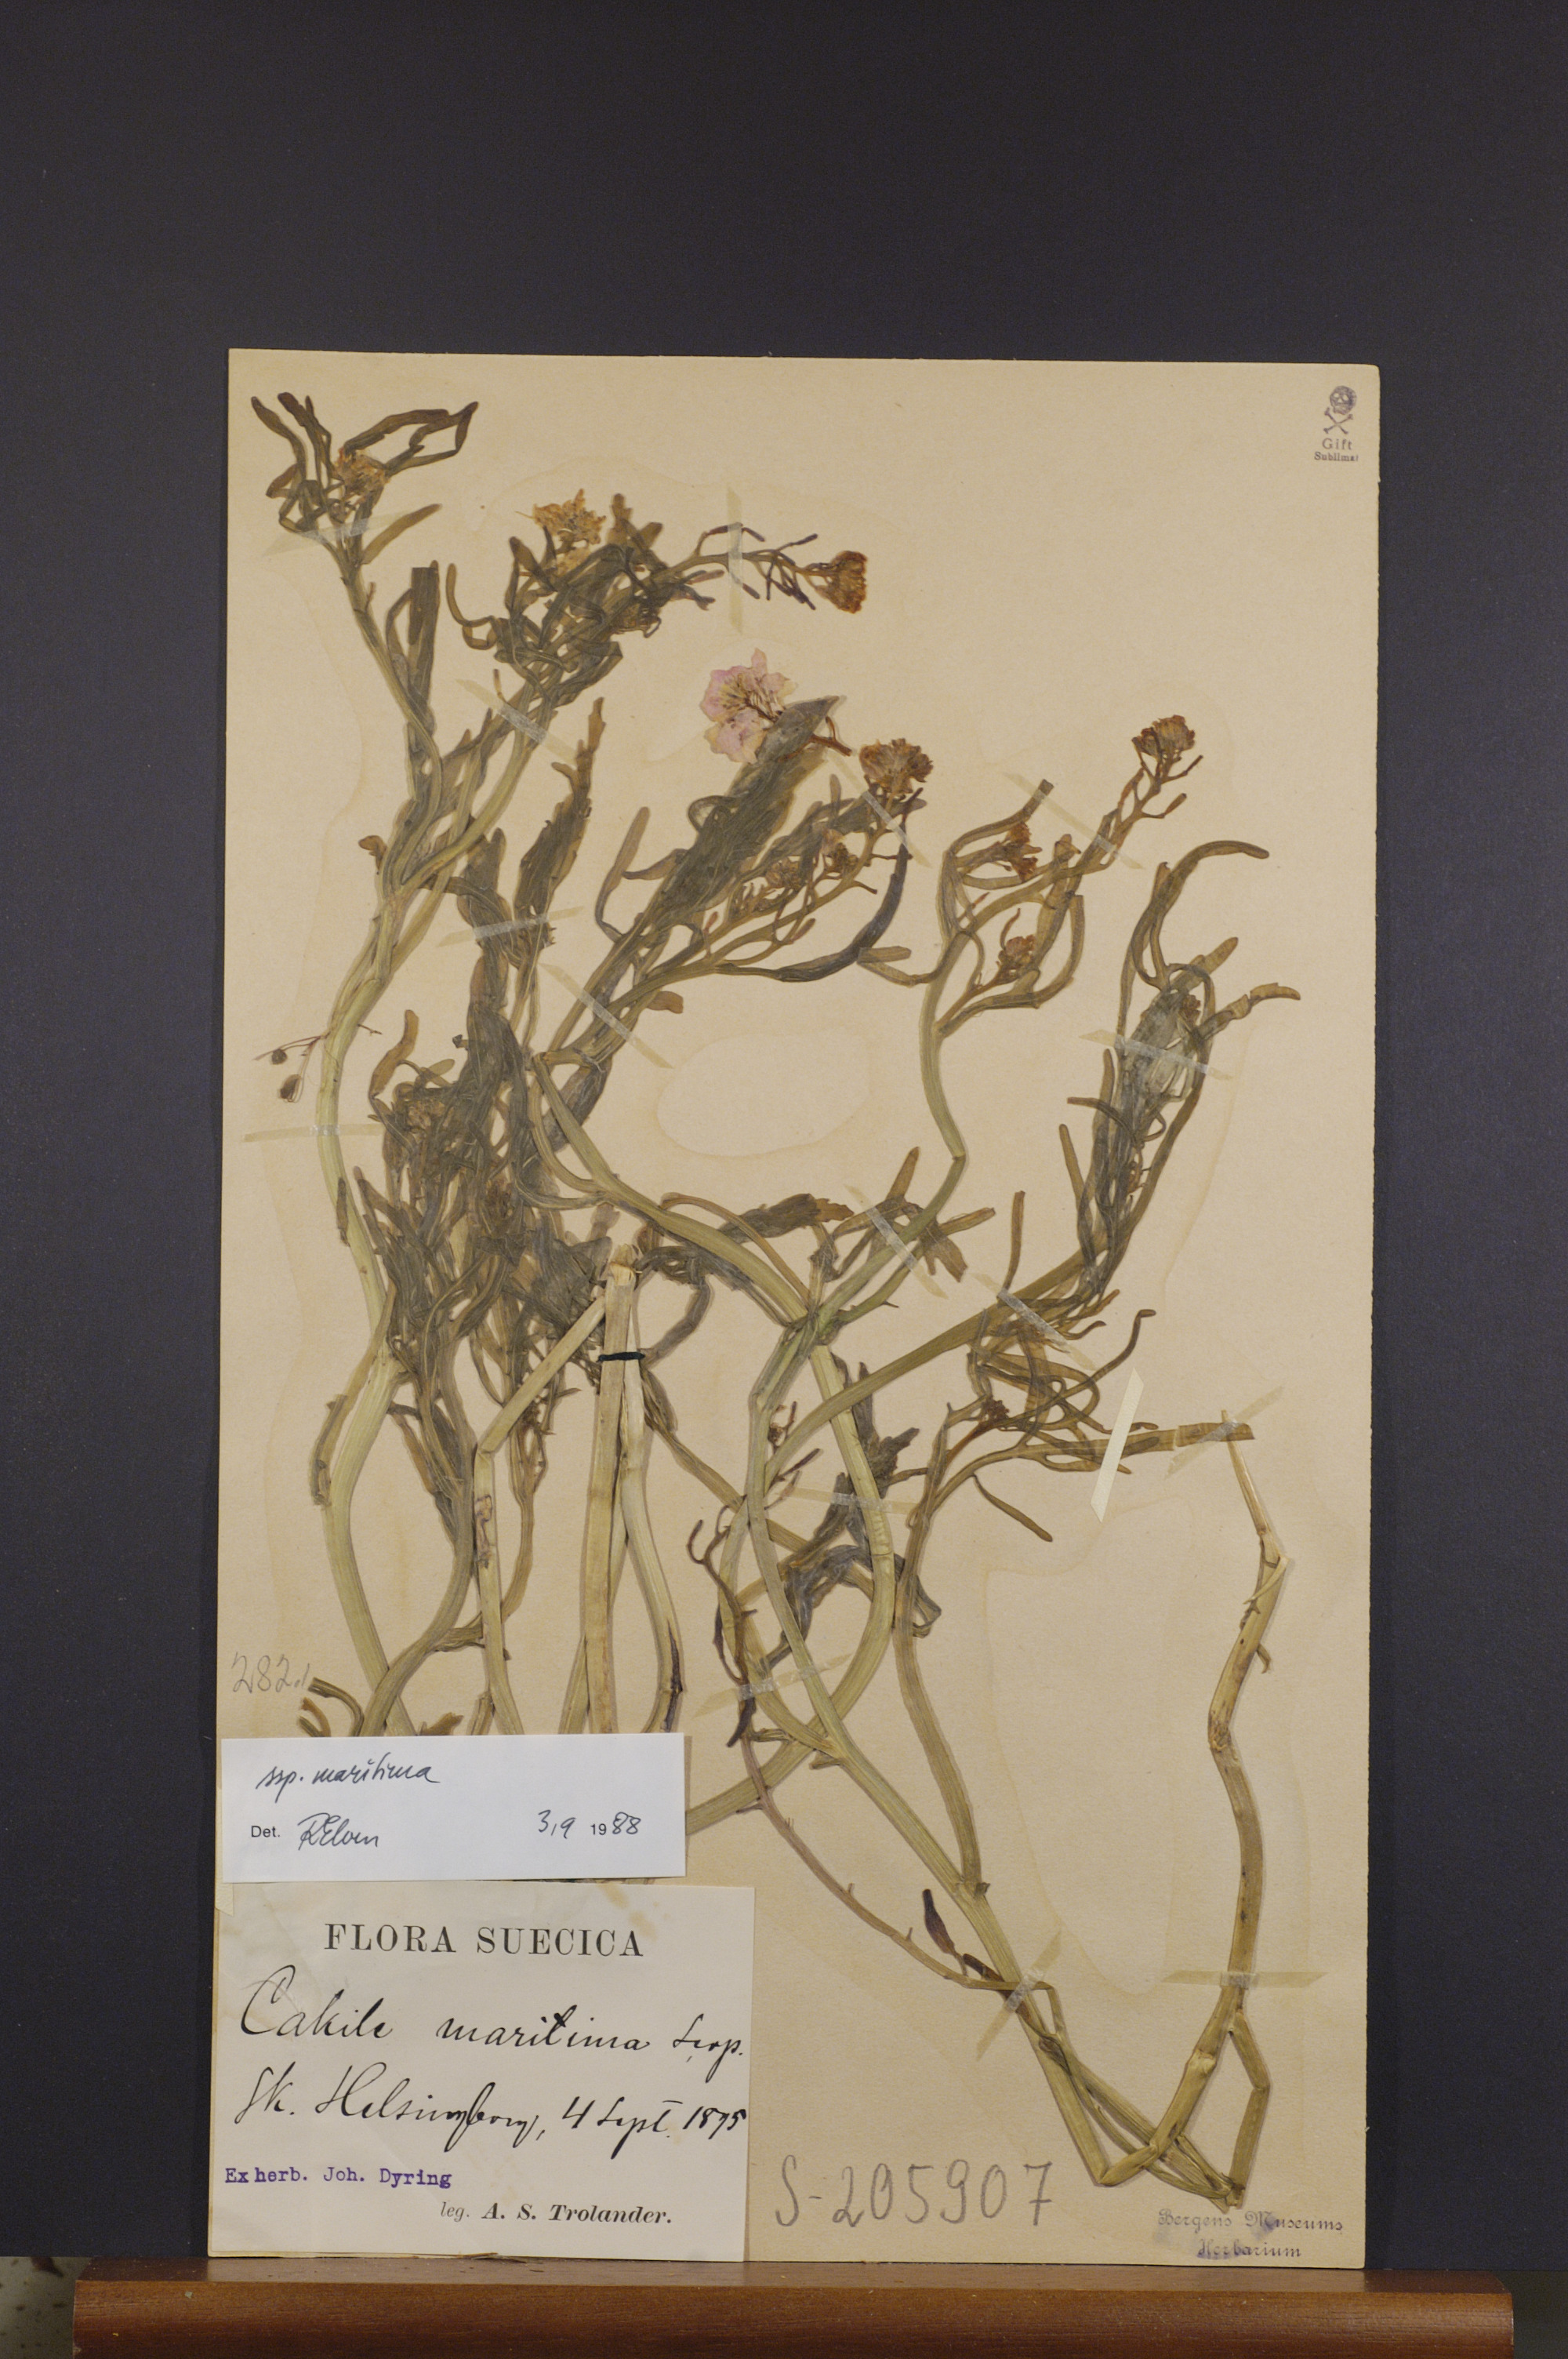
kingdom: Plantae
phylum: Tracheophyta
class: Magnoliopsida
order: Brassicales
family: Brassicaceae
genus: Cakile
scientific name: Cakile maritima
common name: Sea rocket
